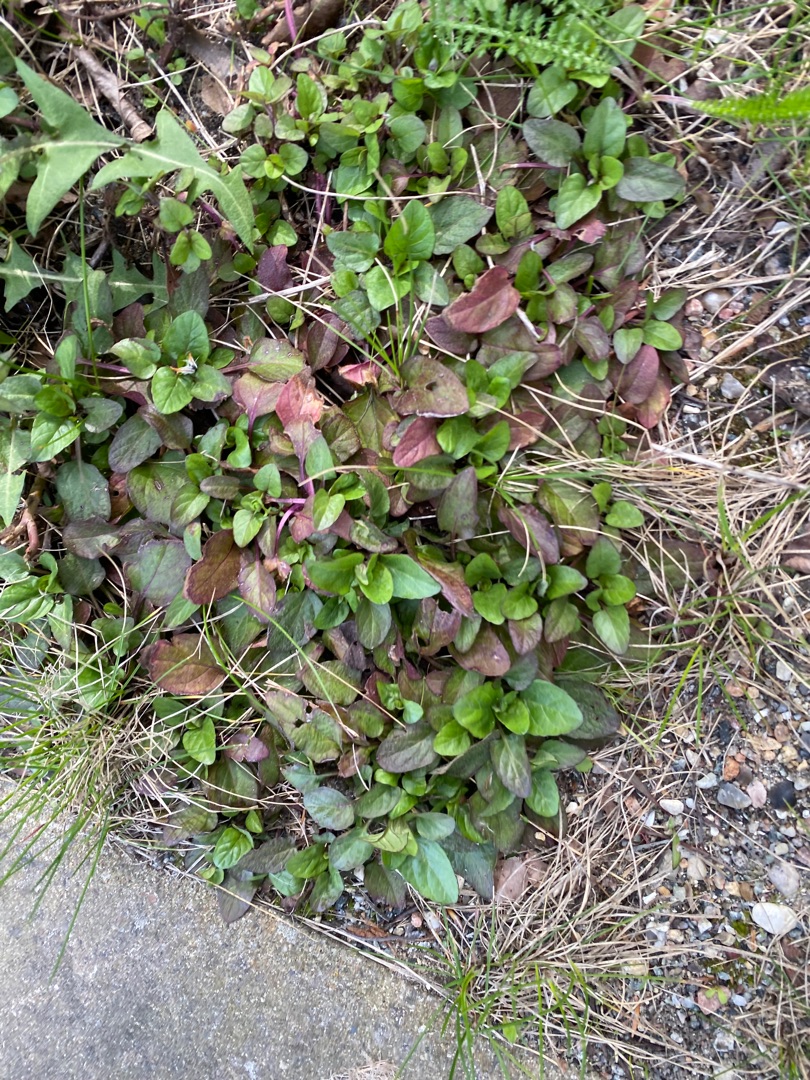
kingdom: Plantae
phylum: Tracheophyta
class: Magnoliopsida
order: Lamiales
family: Lamiaceae
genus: Prunella
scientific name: Prunella vulgaris
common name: Almindelig brunelle
